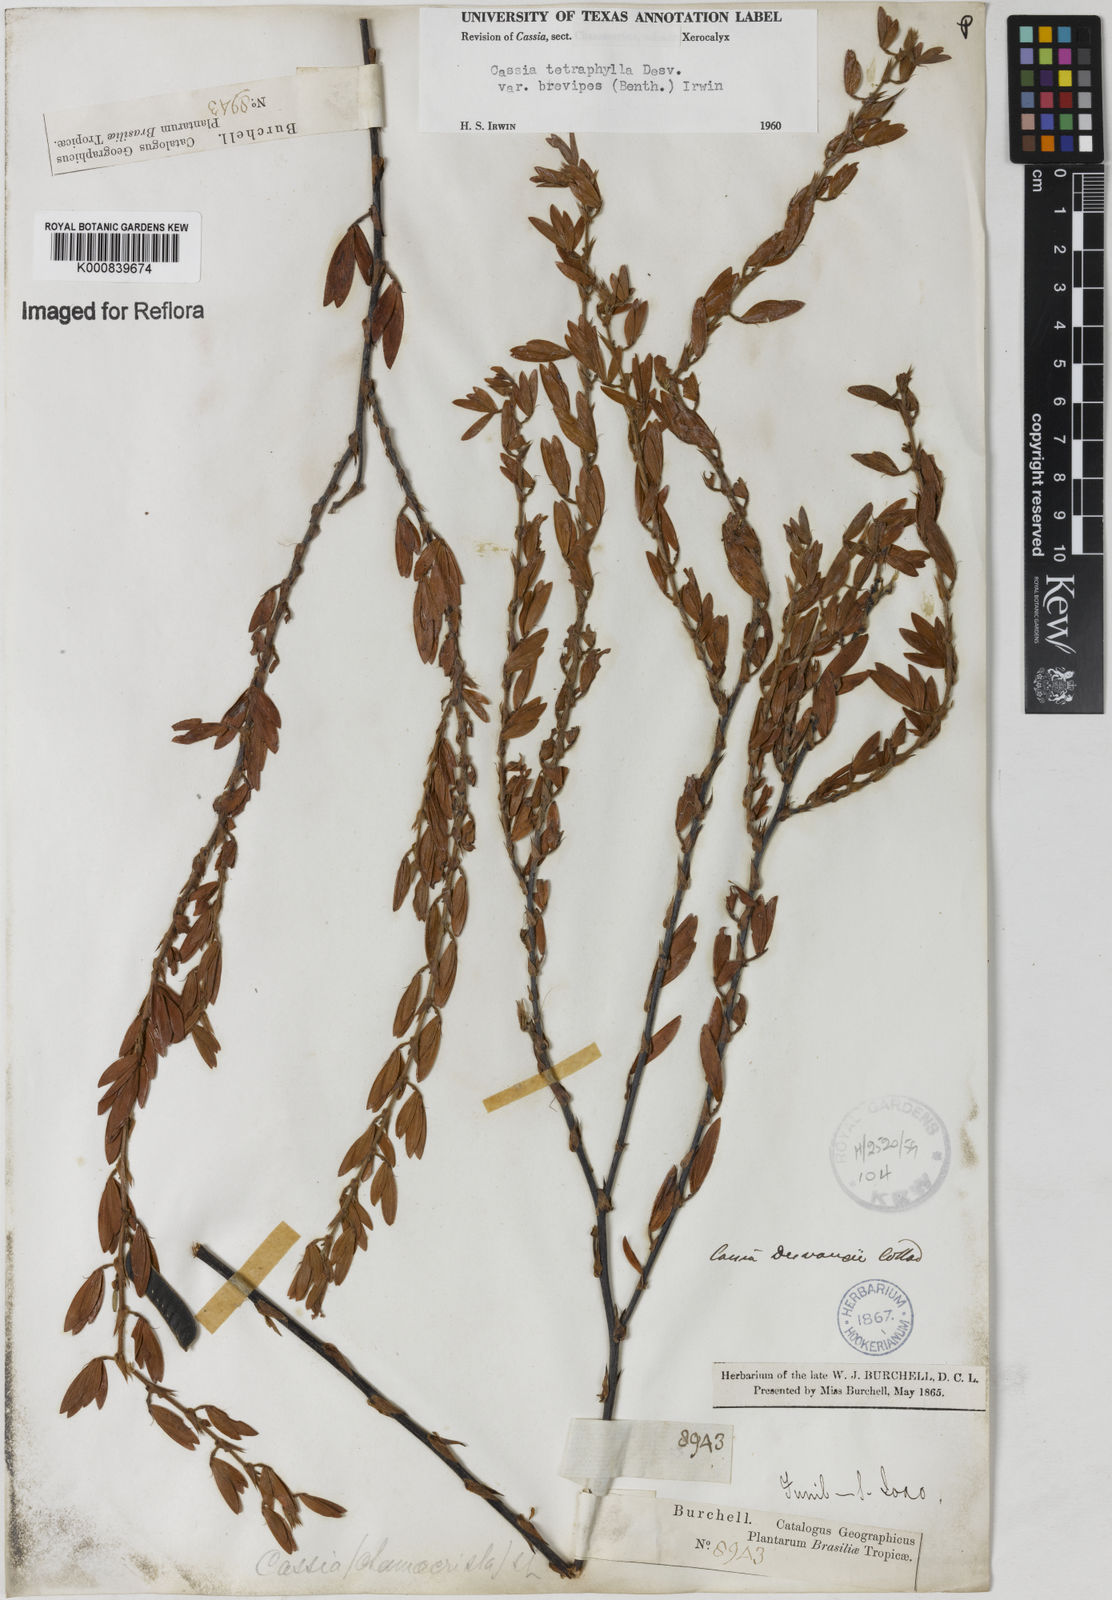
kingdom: Plantae
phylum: Tracheophyta
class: Magnoliopsida
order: Fabales
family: Fabaceae
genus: Chamaecrista
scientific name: Chamaecrista desvauxii
